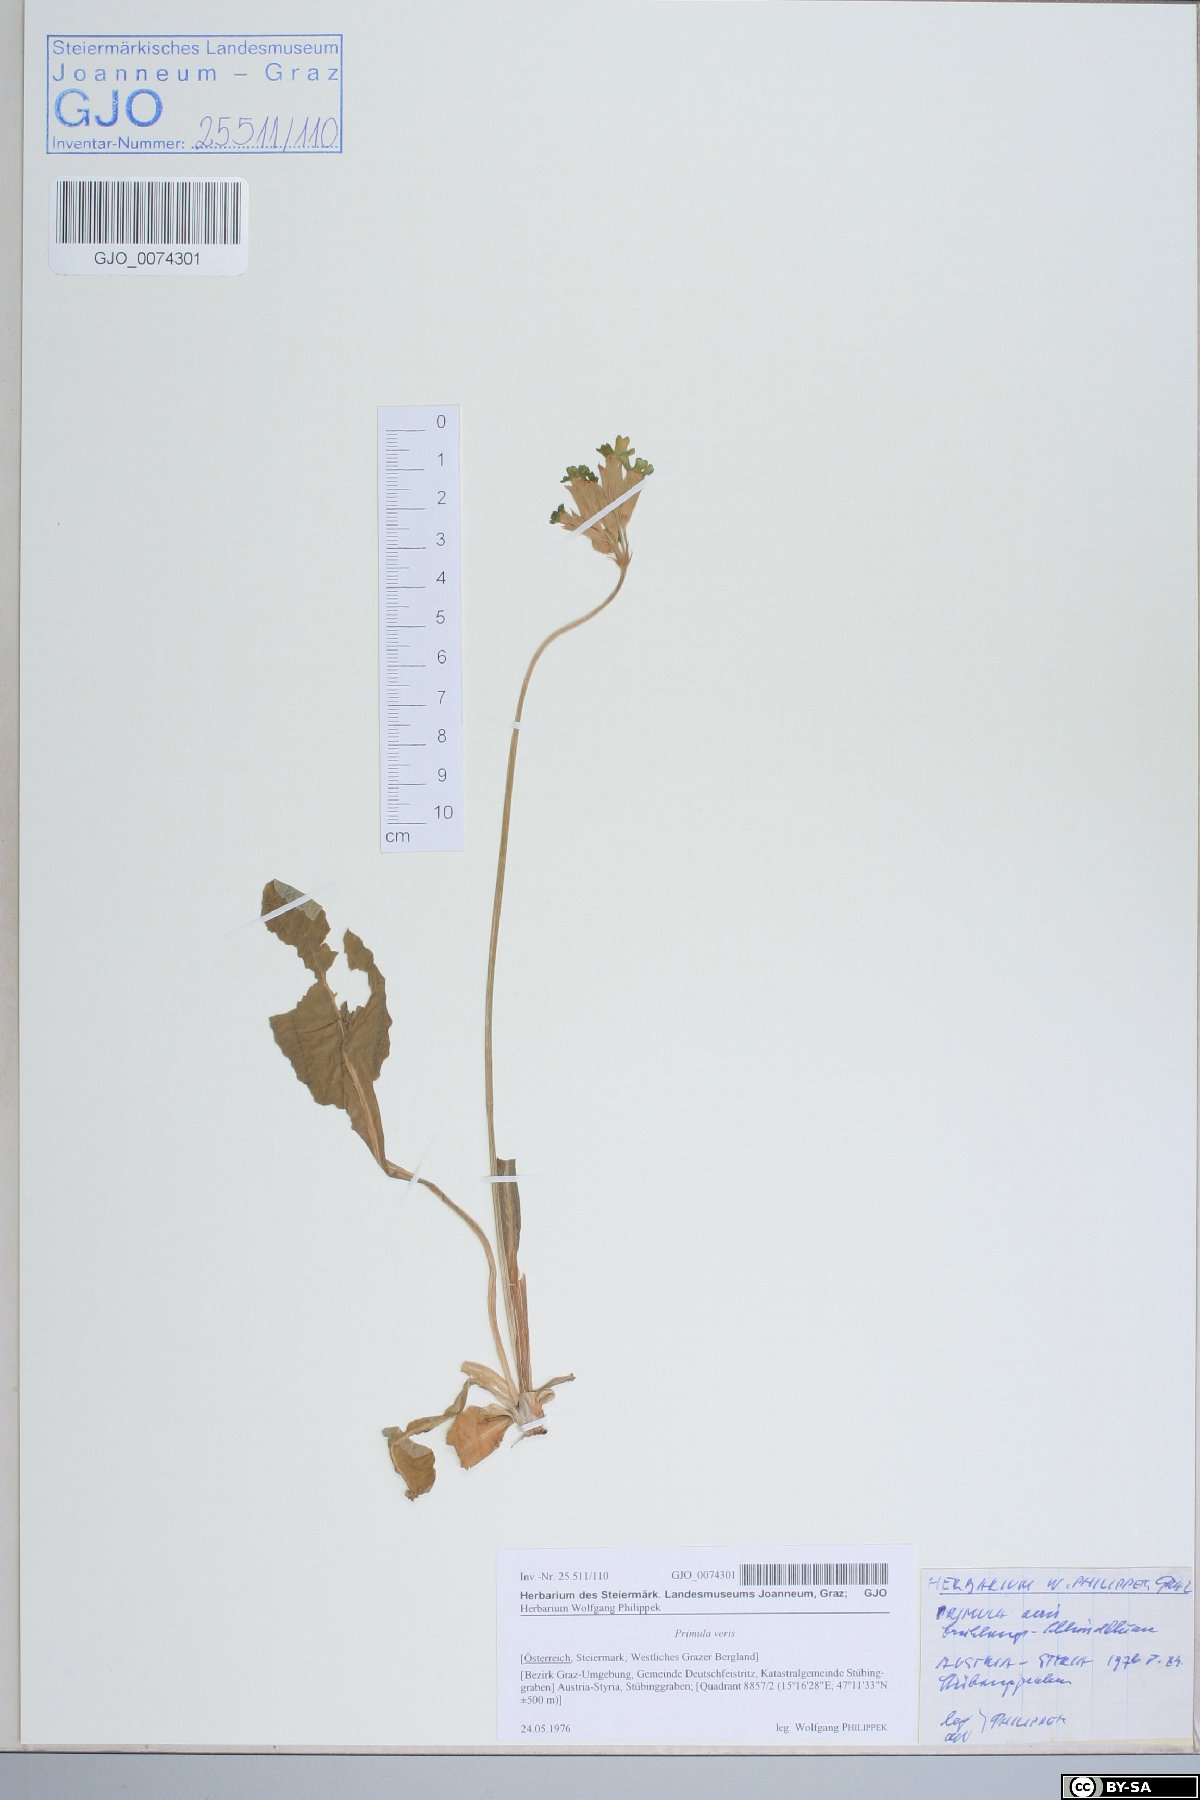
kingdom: Plantae
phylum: Tracheophyta
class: Magnoliopsida
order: Ericales
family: Primulaceae
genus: Primula
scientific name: Primula veris
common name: Cowslip
